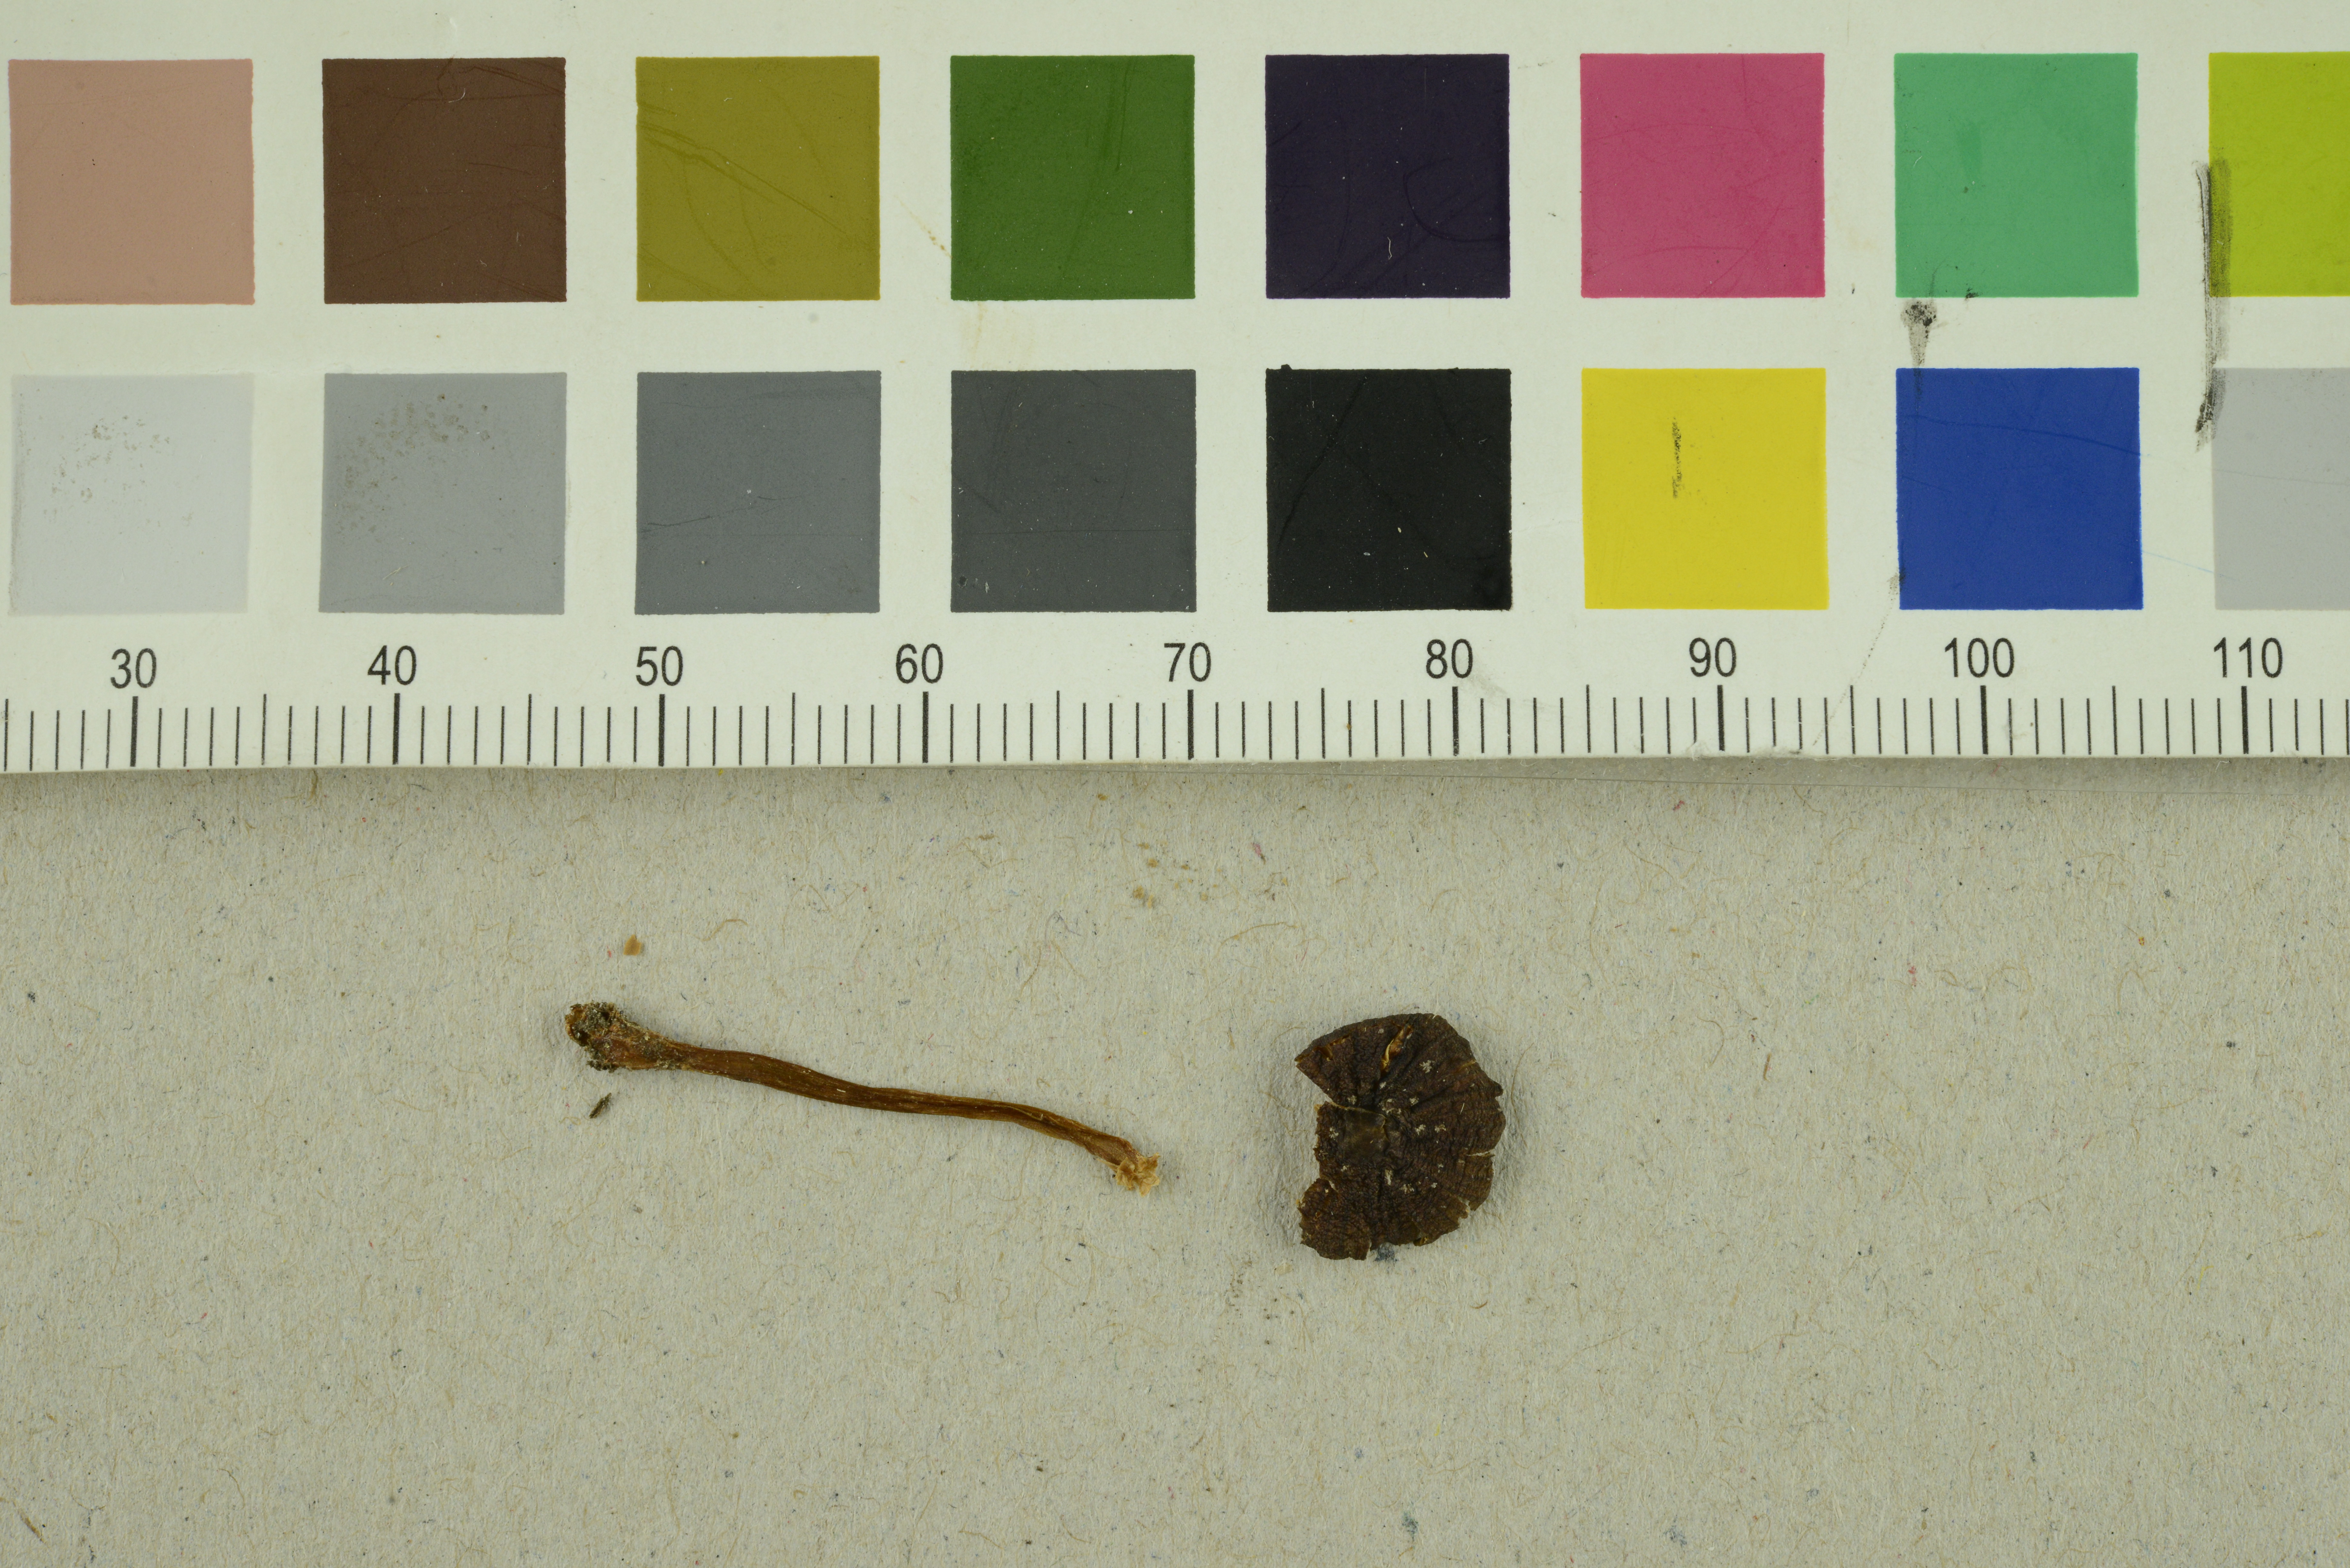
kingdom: Fungi
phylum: Basidiomycota
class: Agaricomycetes
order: Agaricales
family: Entolomataceae
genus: Entoloma
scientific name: Entoloma olivaceotinctum
